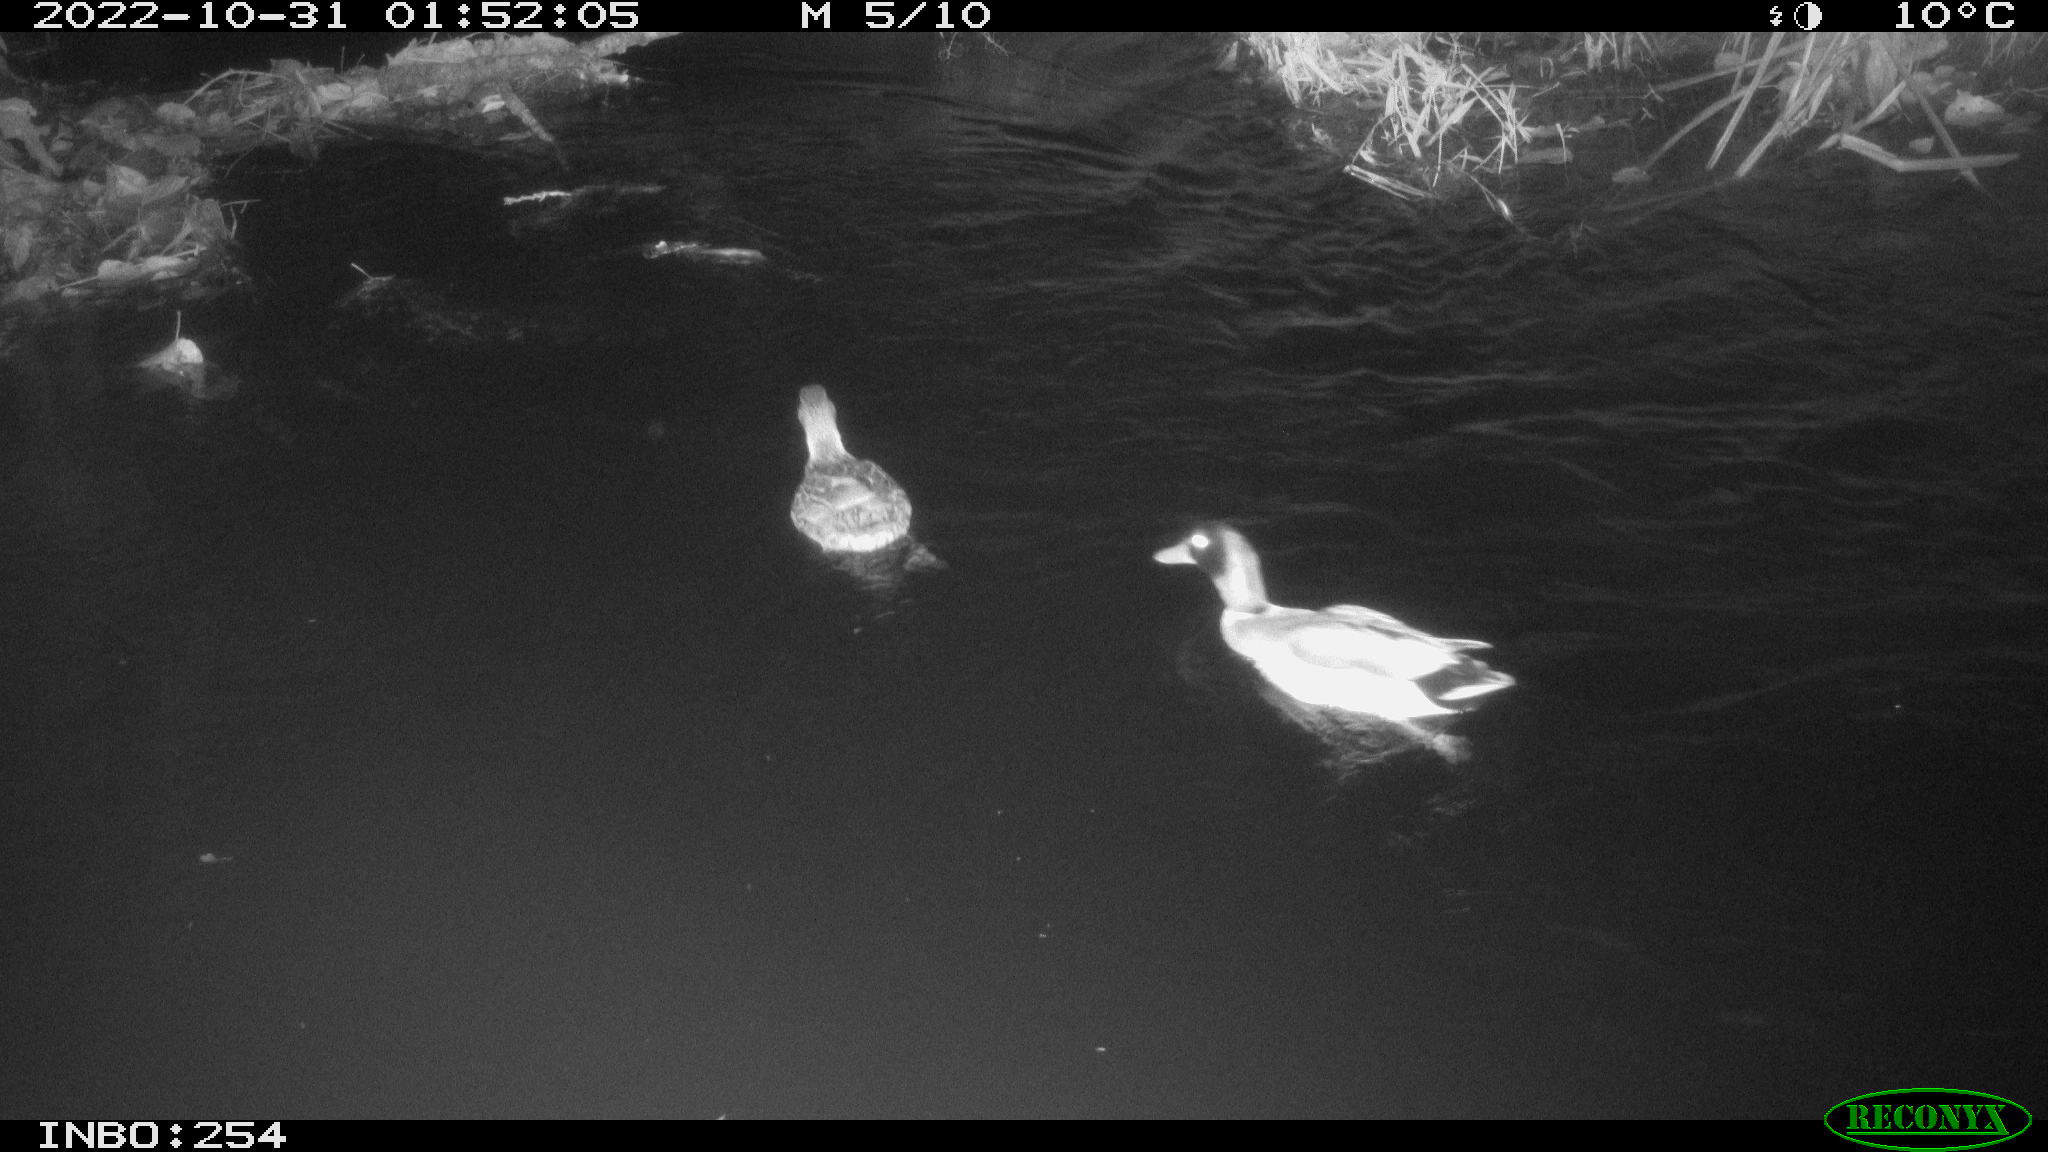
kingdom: Animalia
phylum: Chordata
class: Aves
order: Anseriformes
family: Anatidae
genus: Anas
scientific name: Anas
